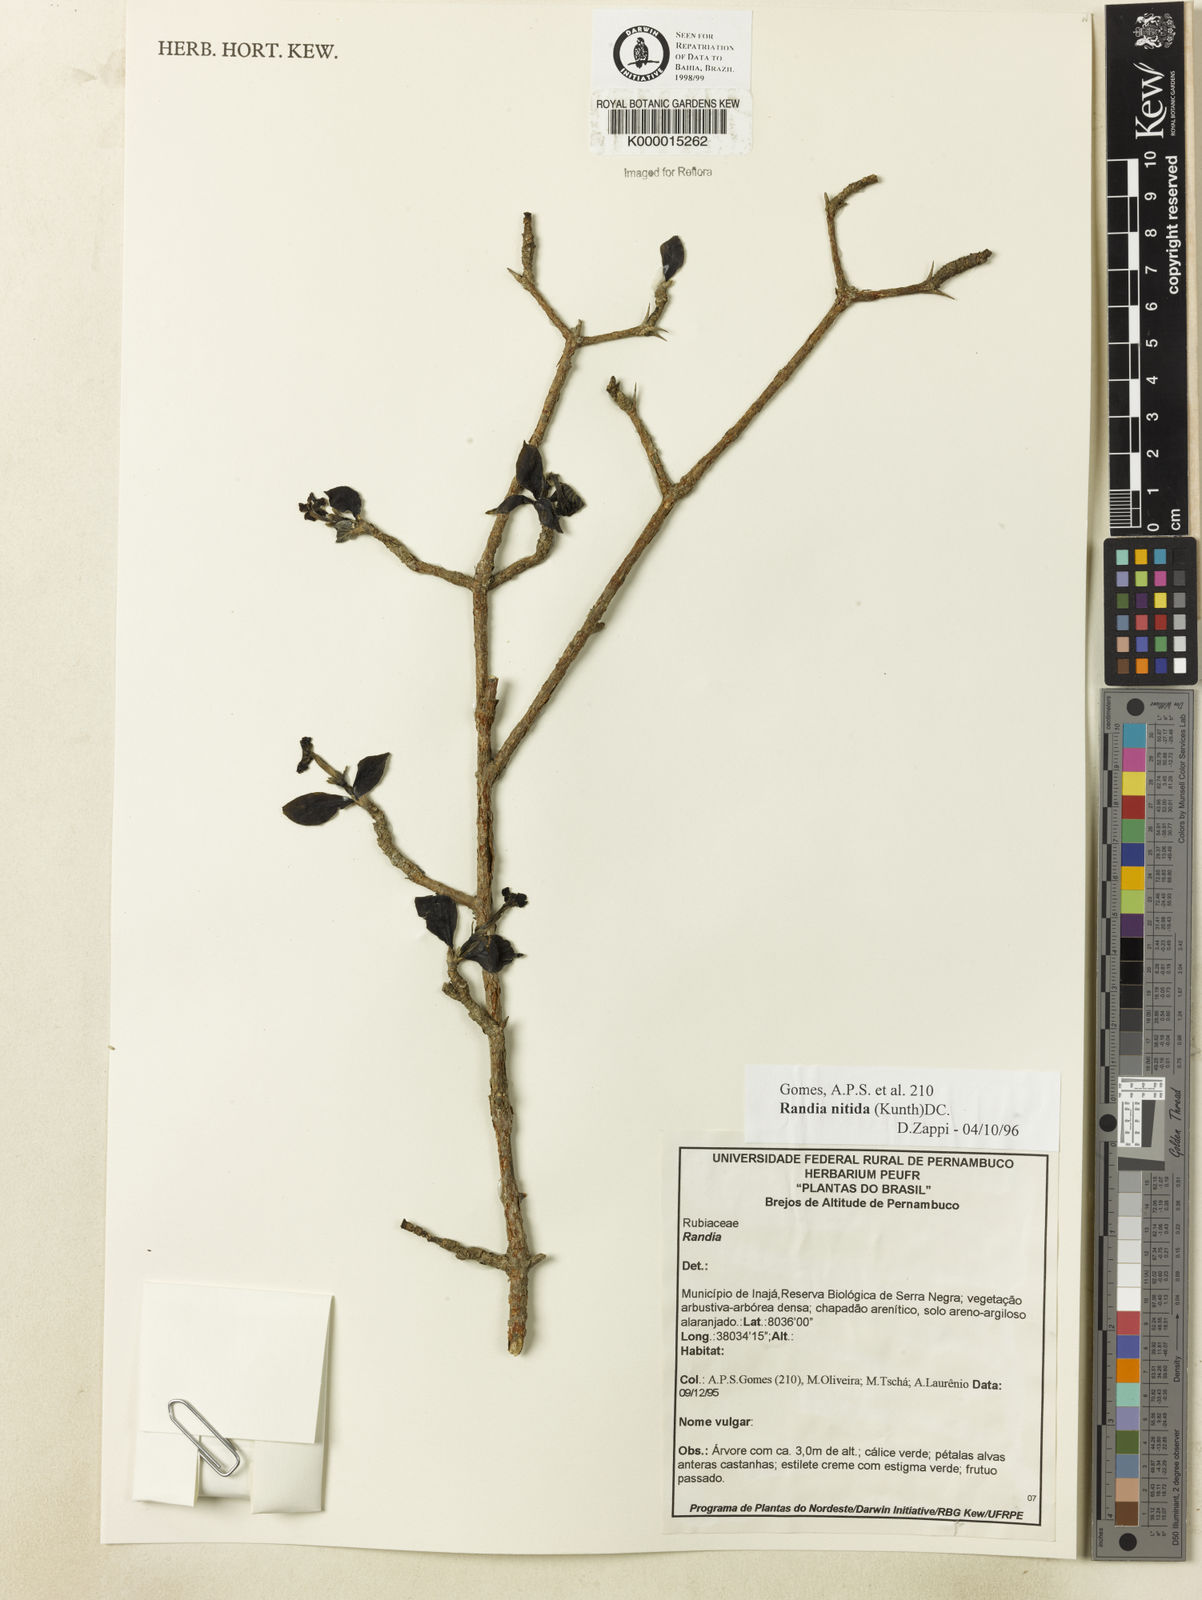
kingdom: Plantae
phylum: Tracheophyta
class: Magnoliopsida
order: Gentianales
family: Rubiaceae
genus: Randia
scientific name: Randia nitida
